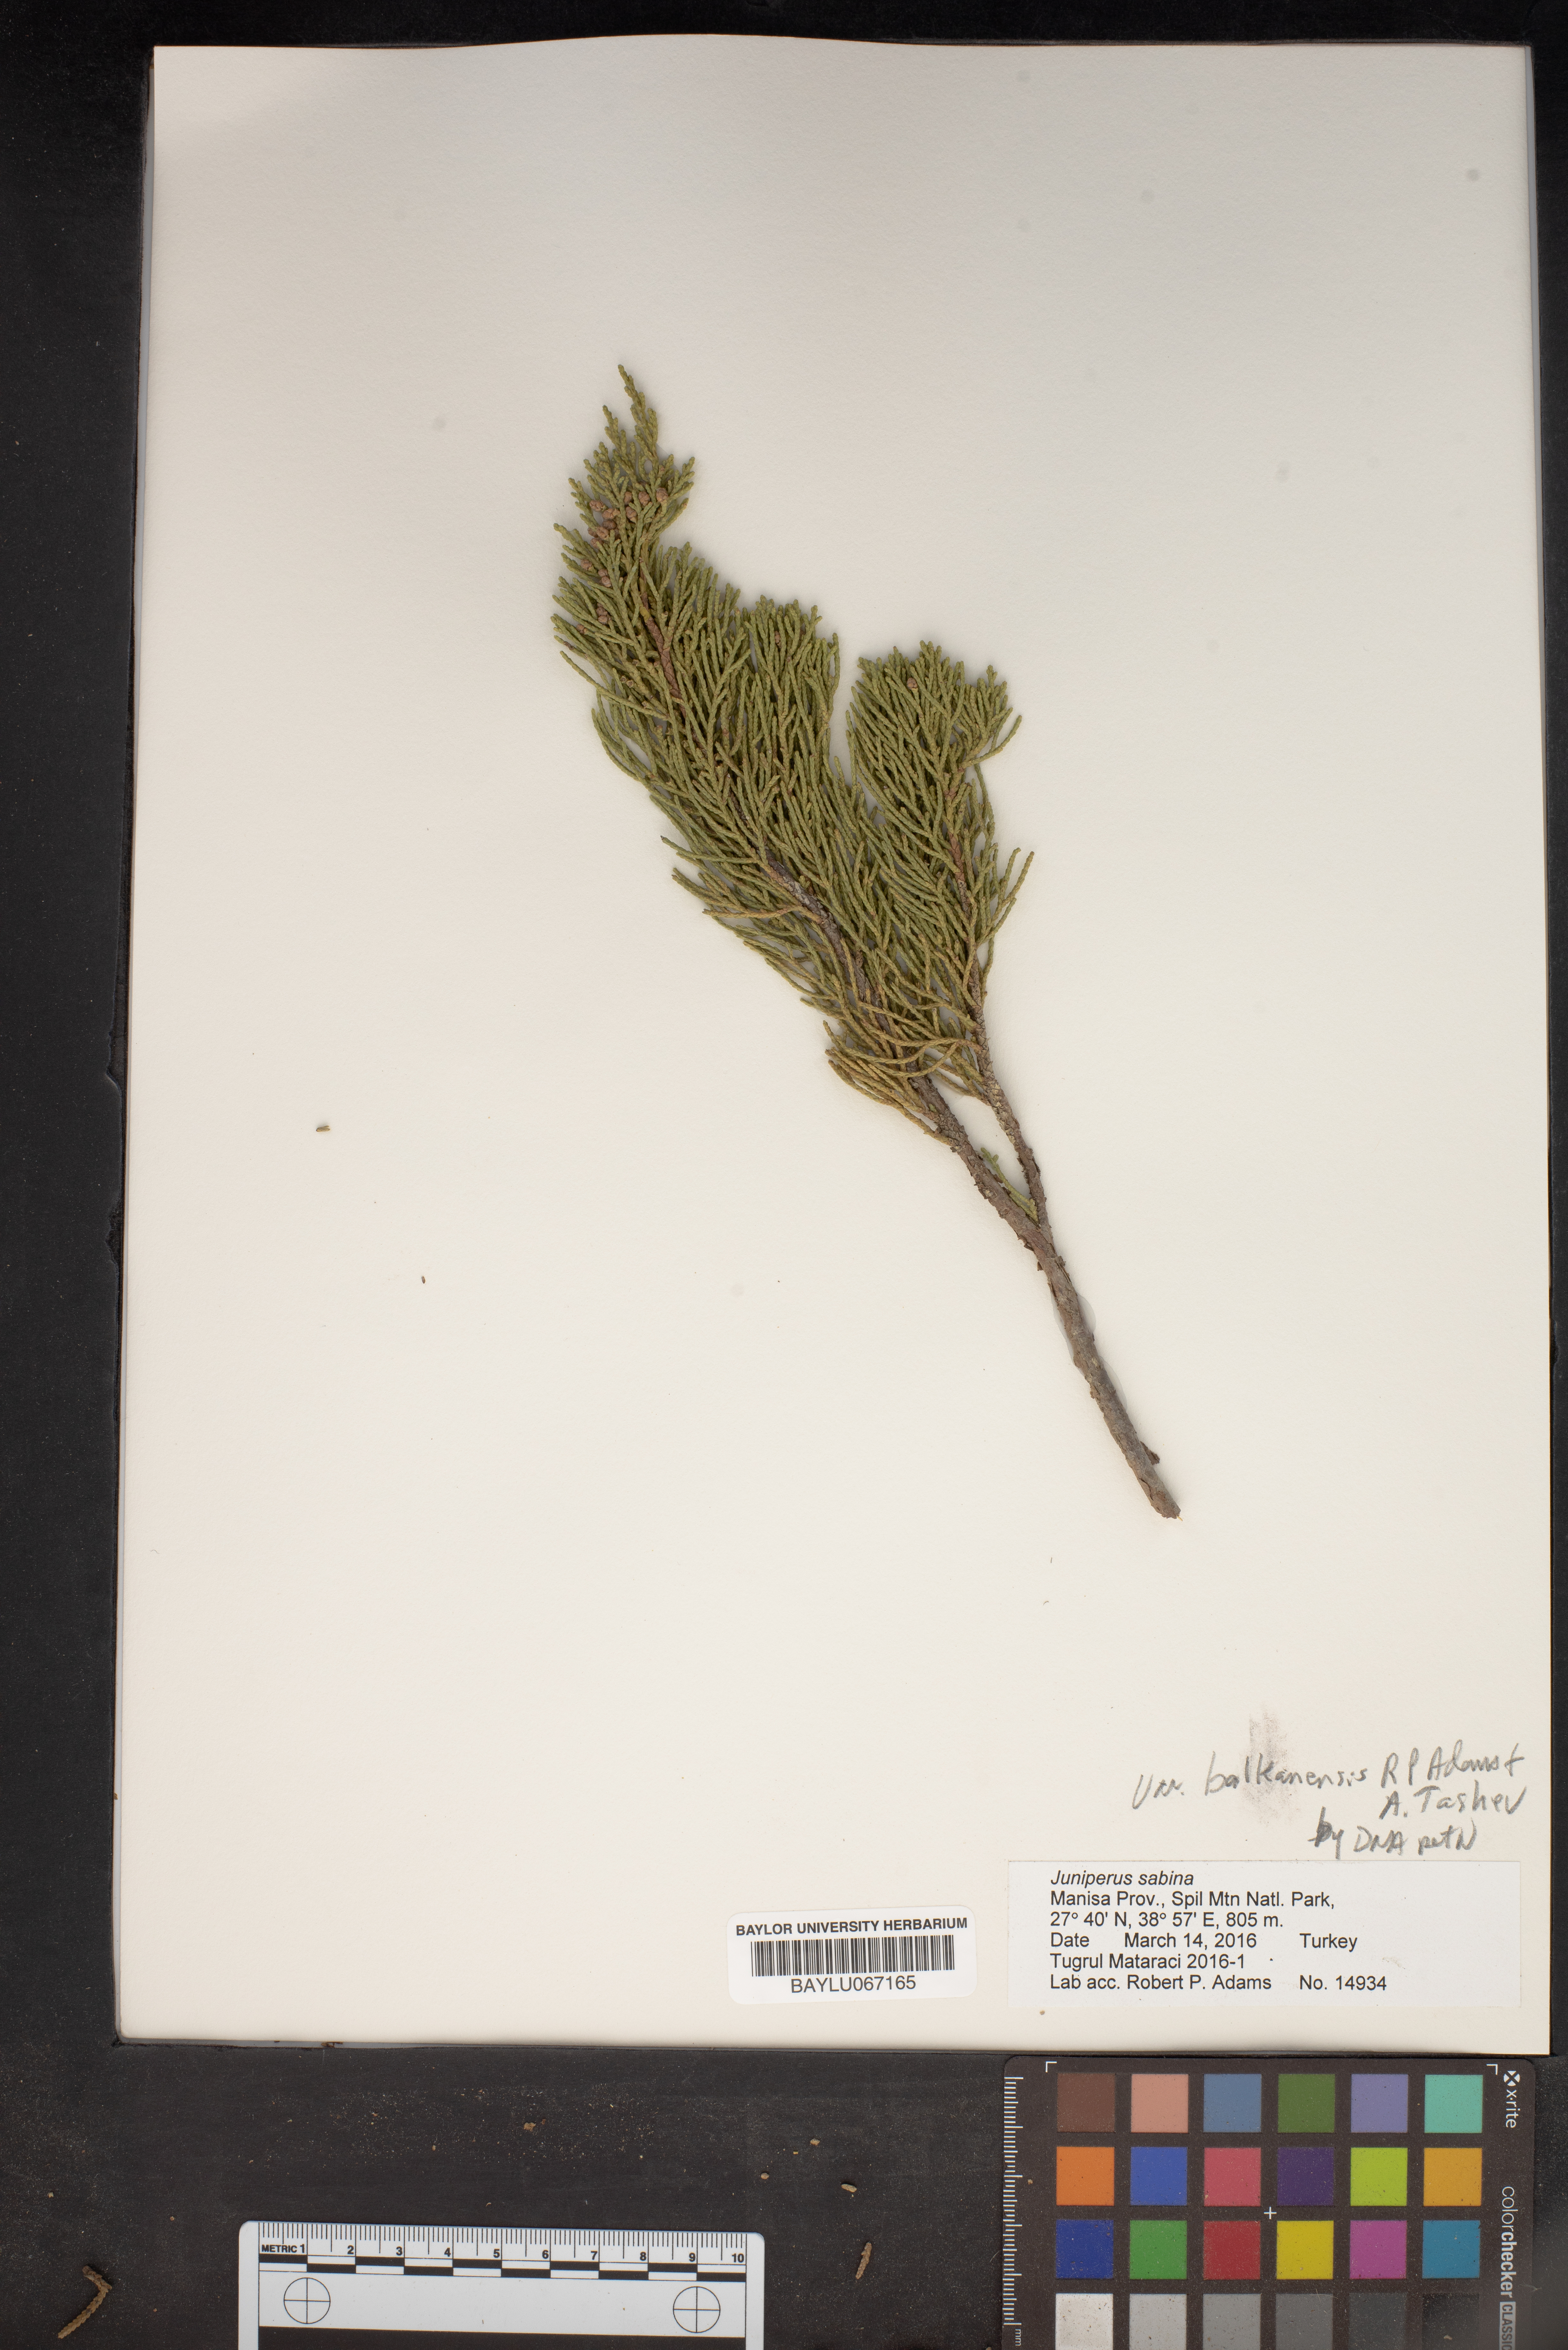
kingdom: Plantae
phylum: Tracheophyta
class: Pinopsida
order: Pinales
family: Cupressaceae
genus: Juniperus
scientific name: Juniperus sabina
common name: Savin
